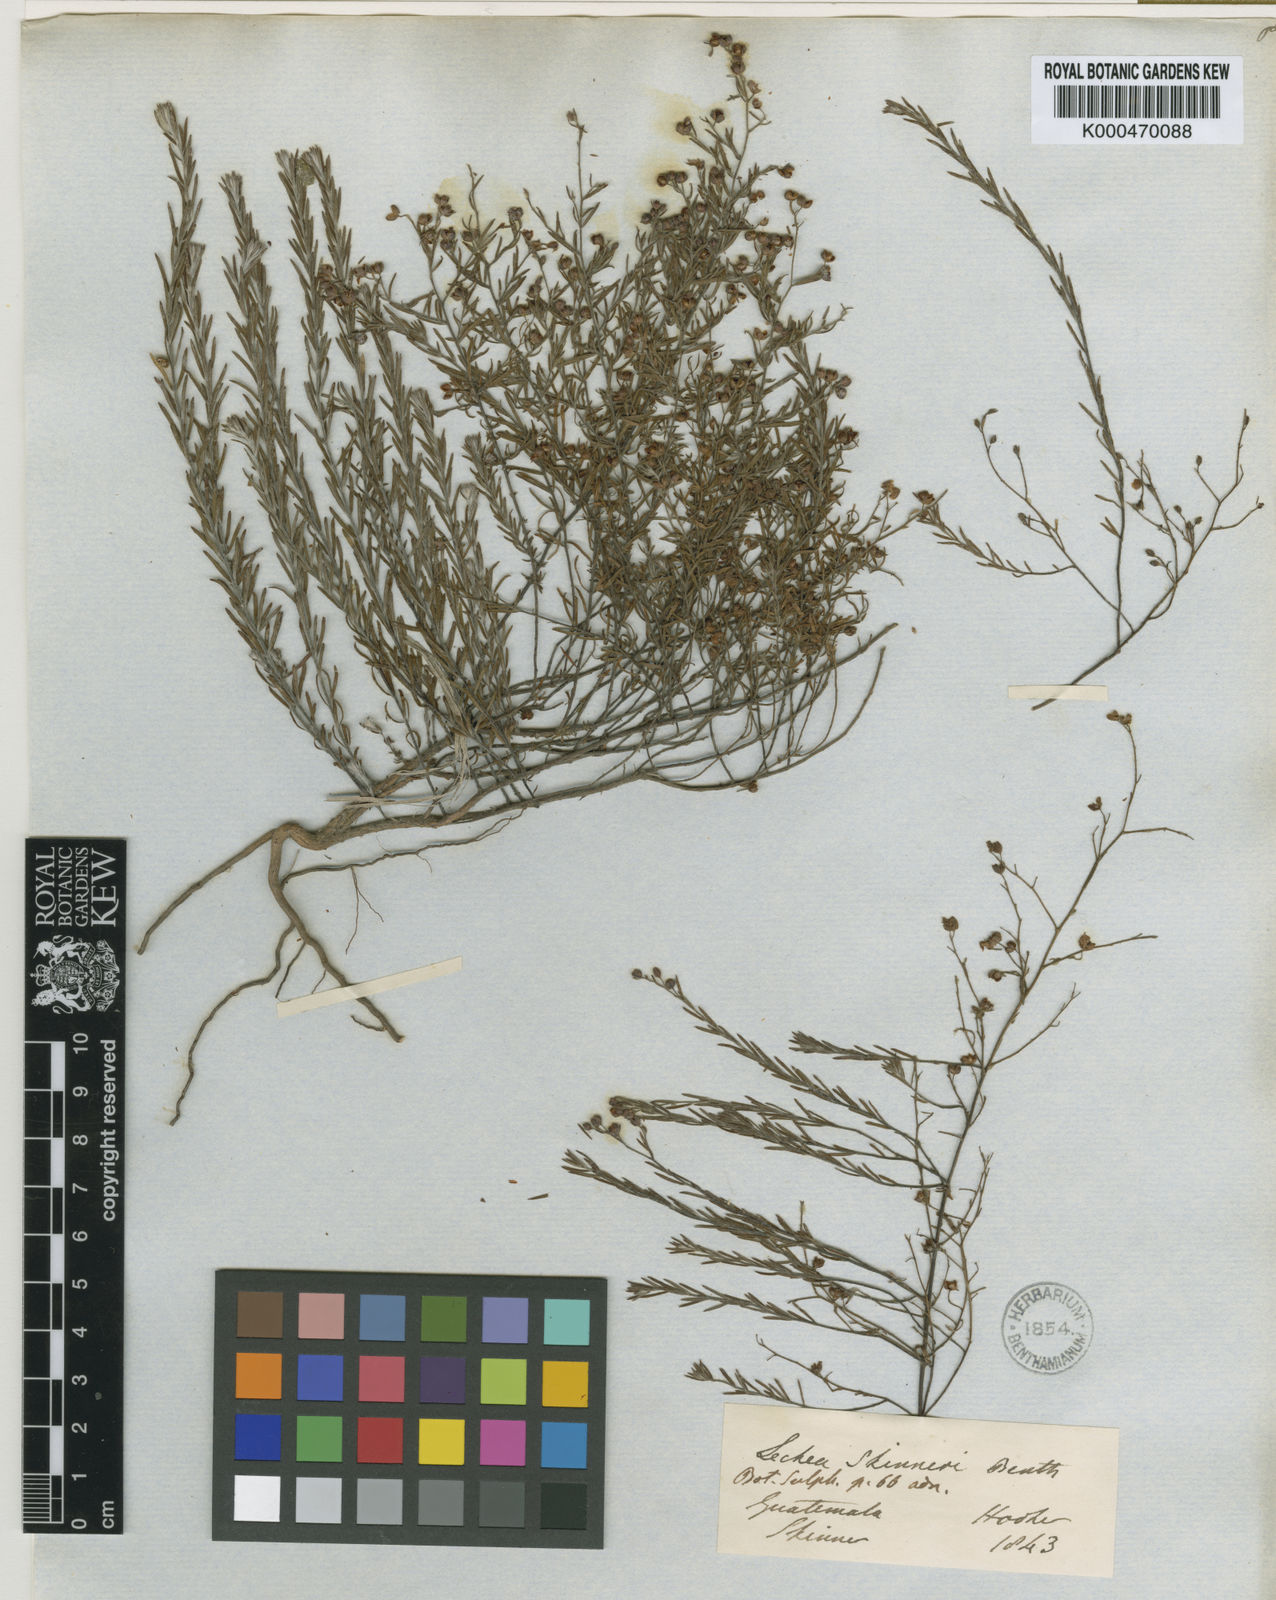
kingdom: Plantae
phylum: Tracheophyta
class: Magnoliopsida
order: Malvales
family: Cistaceae
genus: Lechea
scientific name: Lechea
